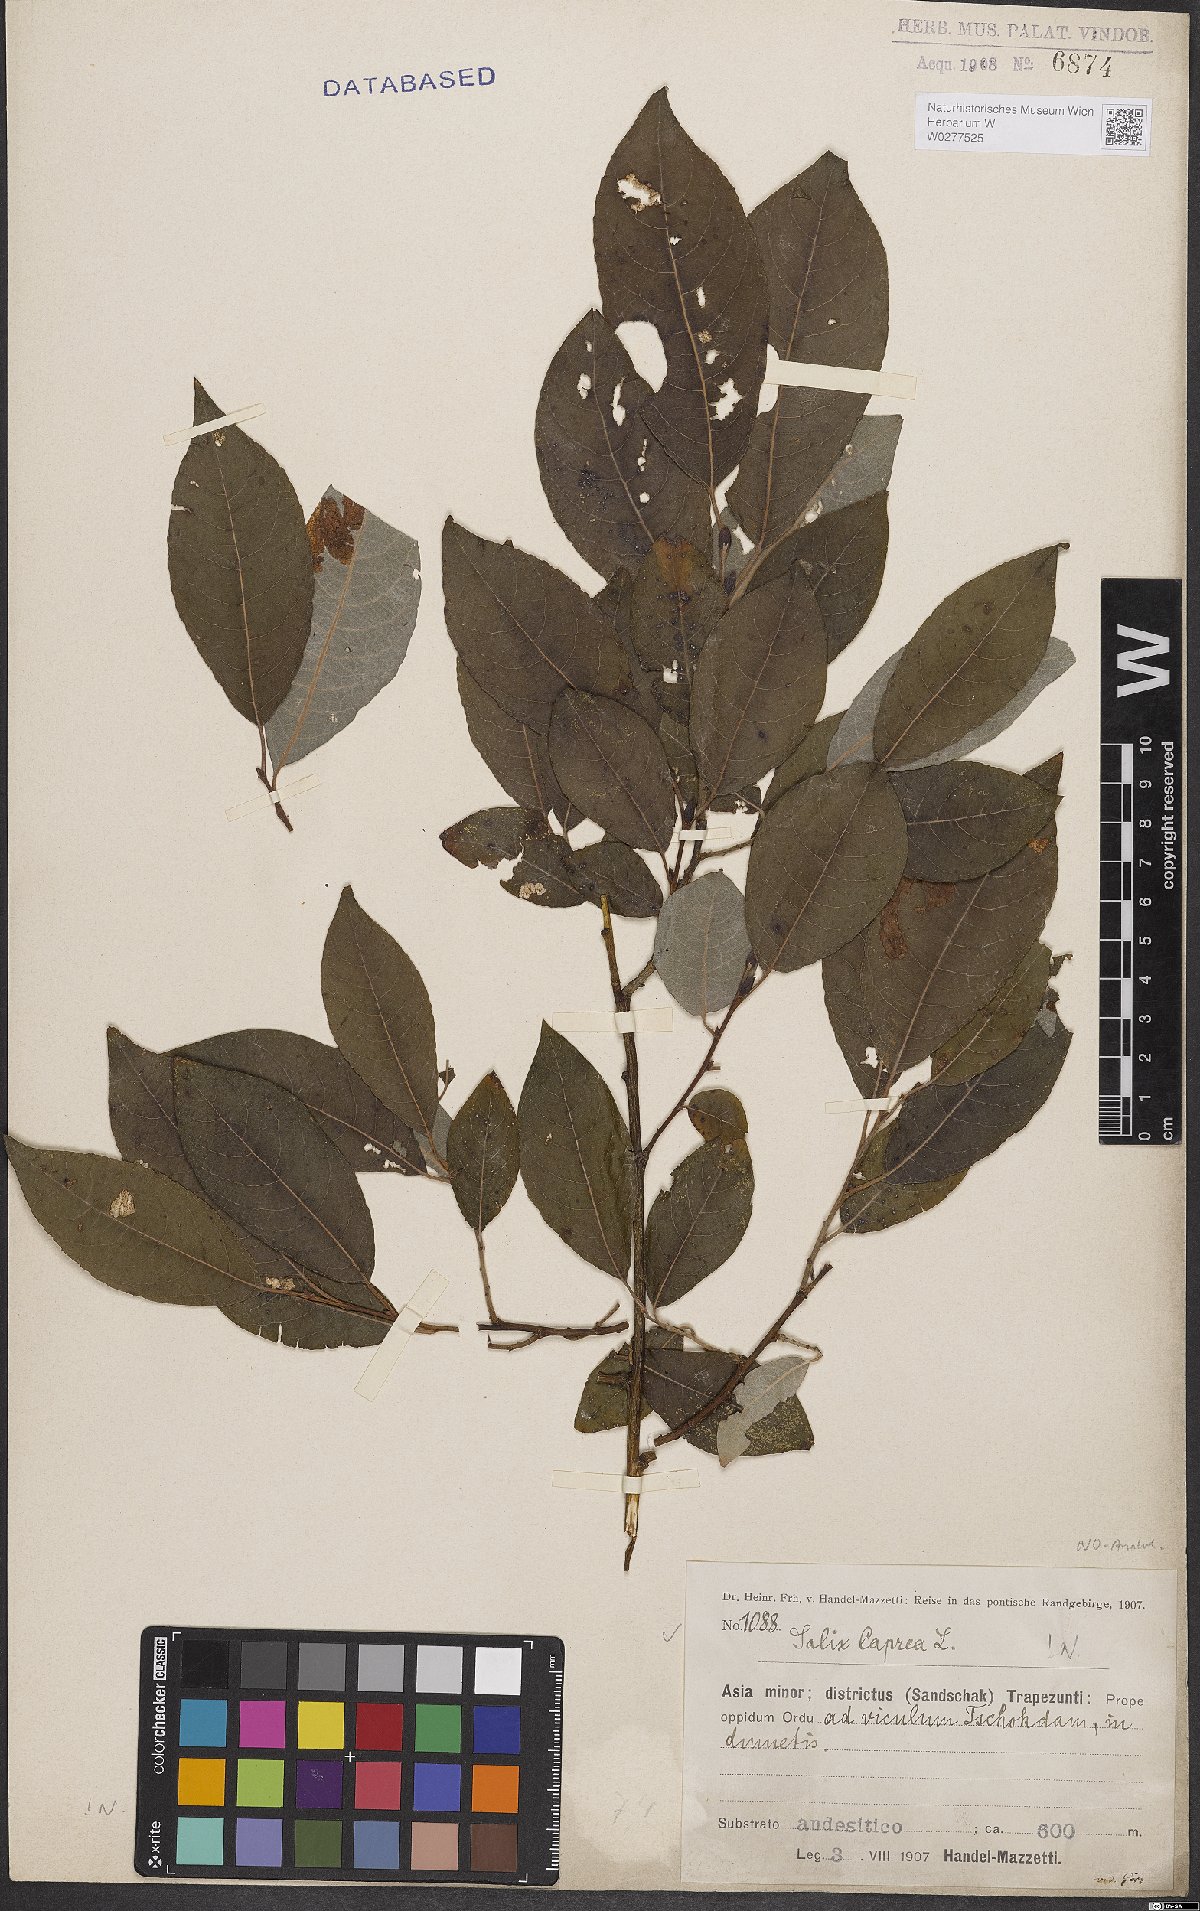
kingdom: Plantae
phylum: Tracheophyta
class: Magnoliopsida
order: Malpighiales
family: Salicaceae
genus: Salix
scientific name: Salix caprea
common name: Goat willow
